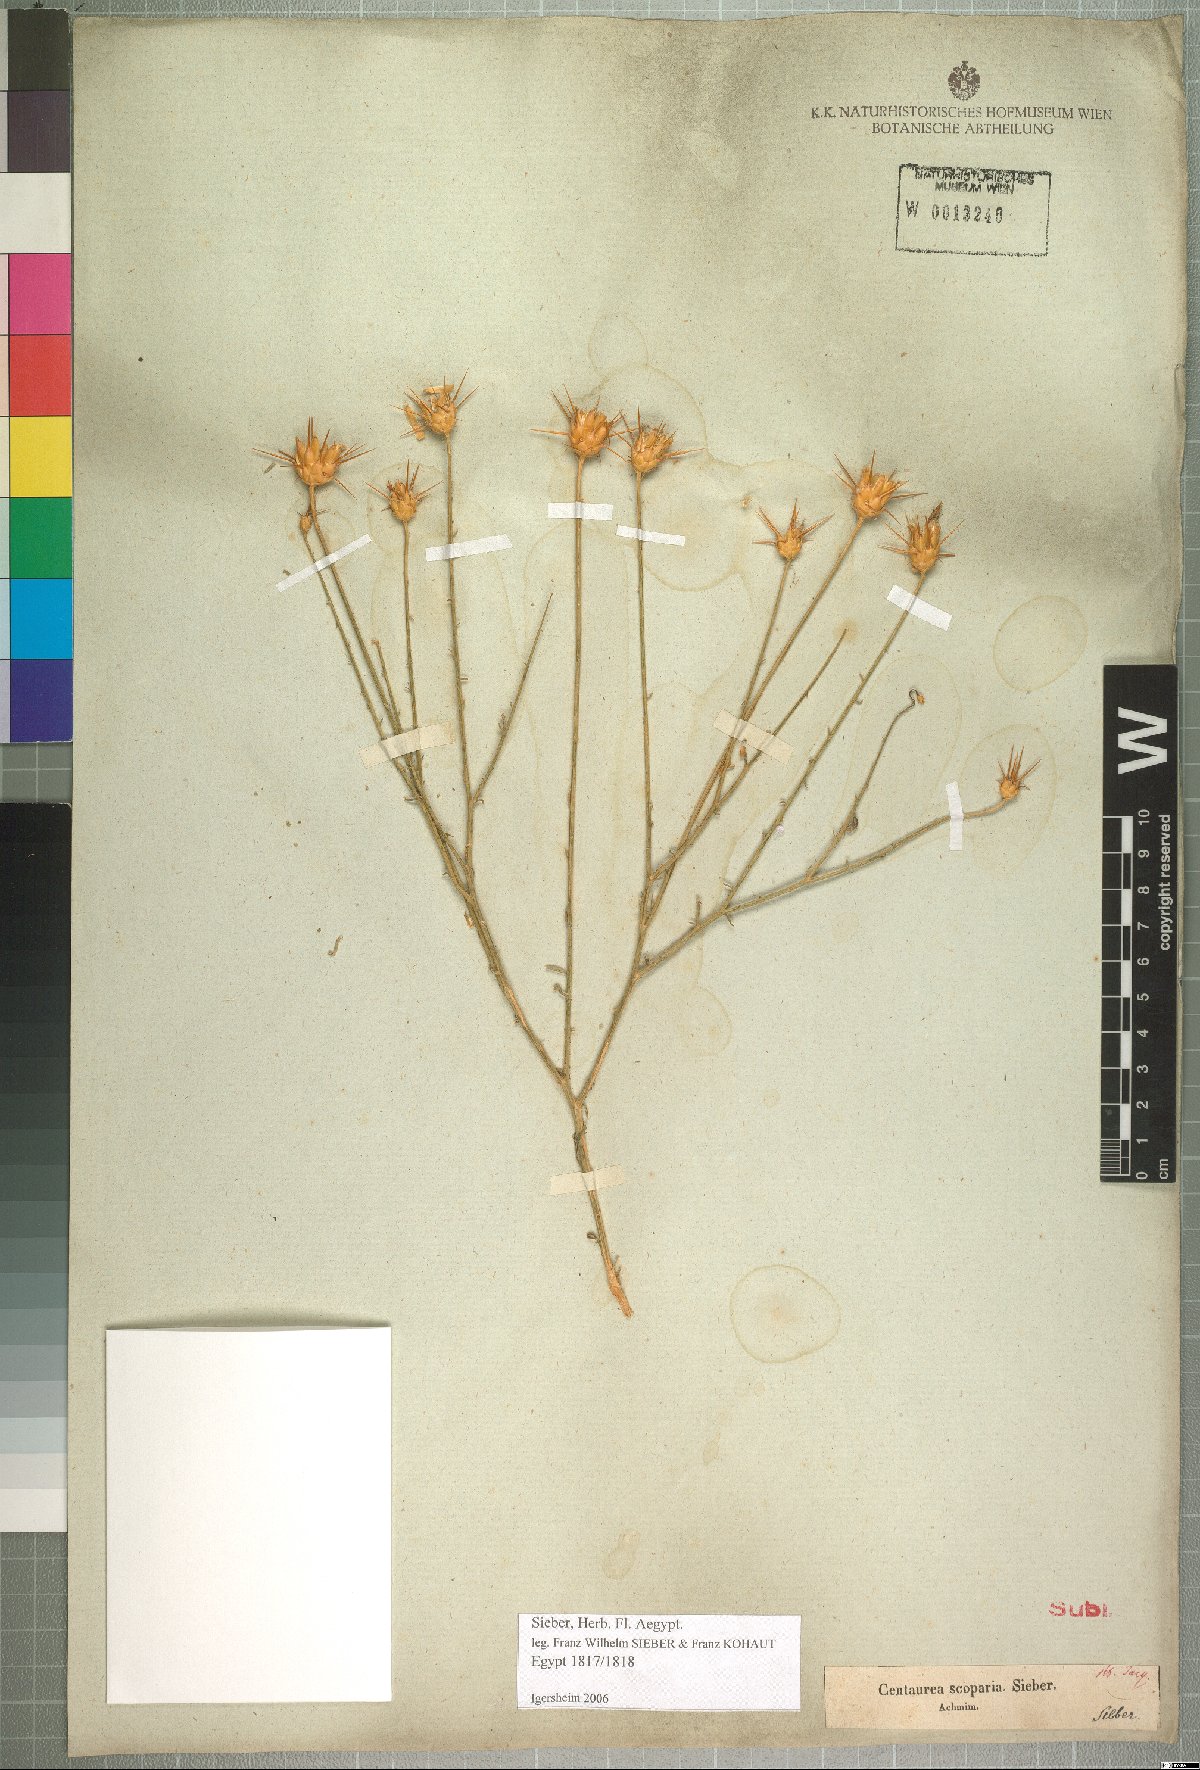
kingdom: Plantae
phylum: Tracheophyta
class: Magnoliopsida
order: Asterales
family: Asteraceae
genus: Centaurea
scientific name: Centaurea scoparia
